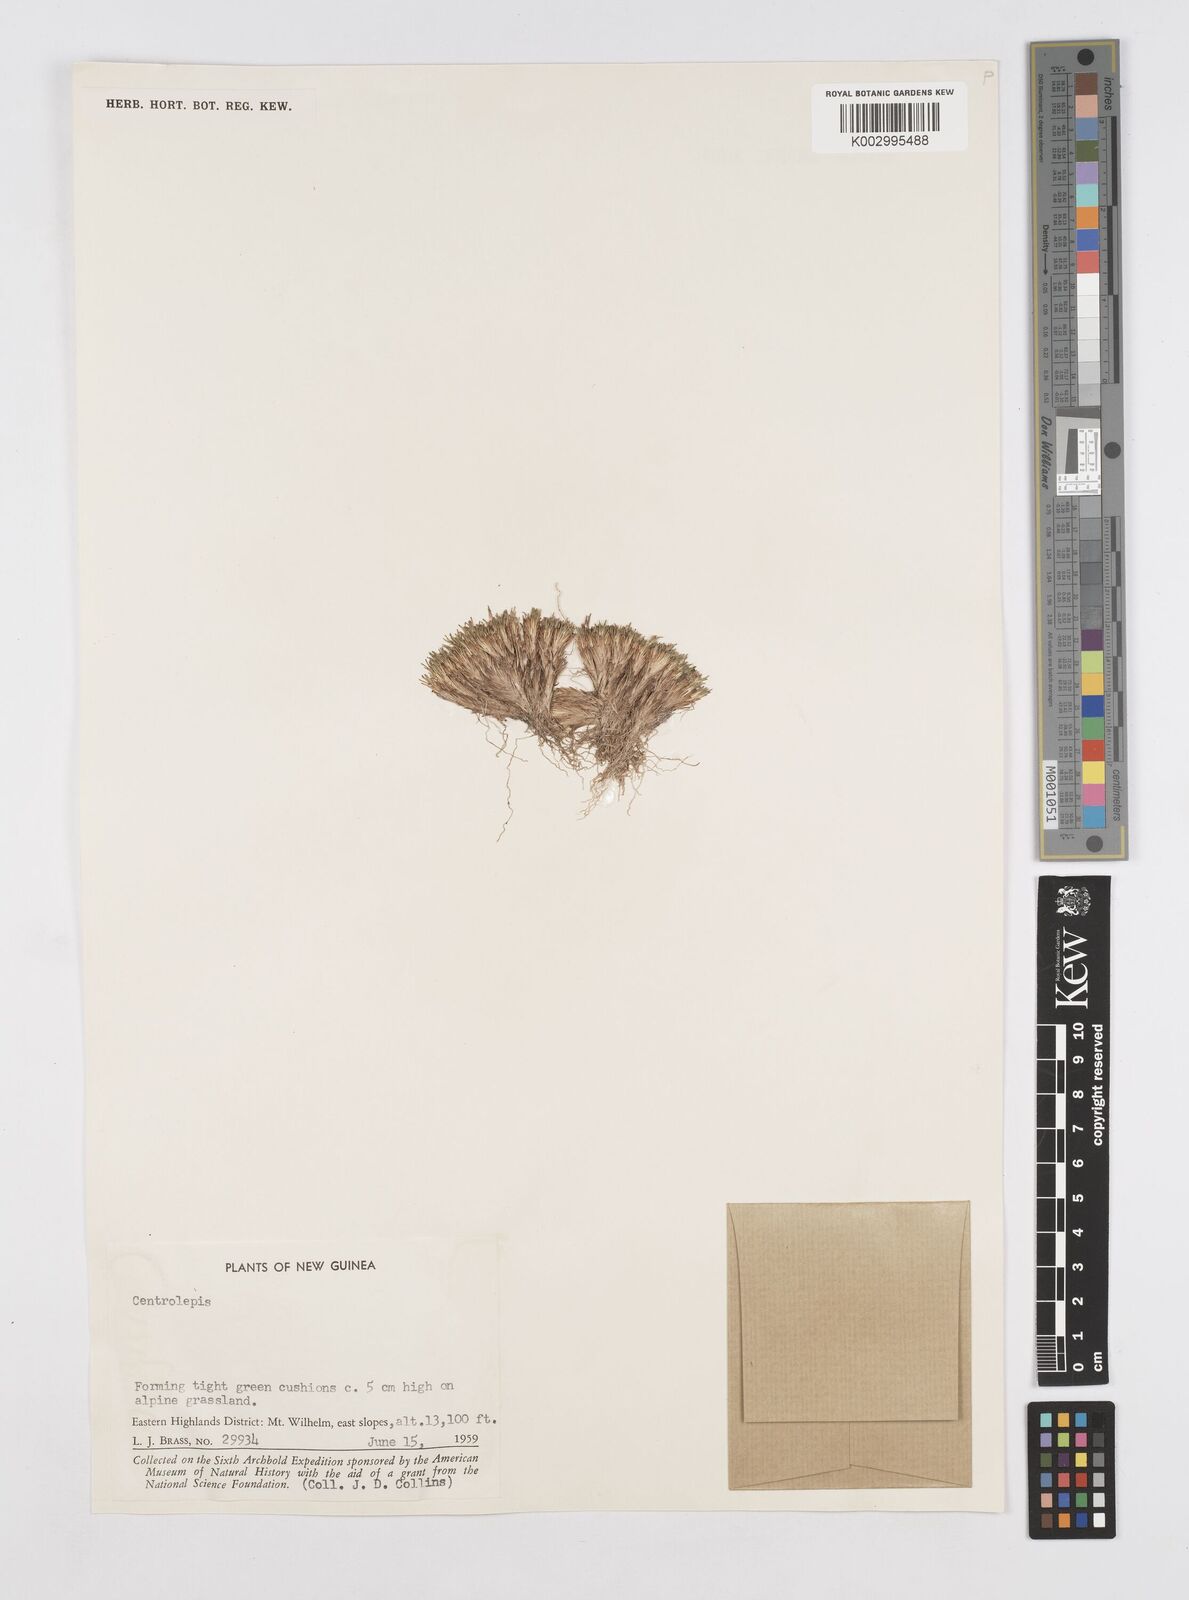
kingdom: Plantae
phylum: Tracheophyta
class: Liliopsida
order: Poales
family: Restionaceae
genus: Centrolepis
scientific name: Centrolepis
